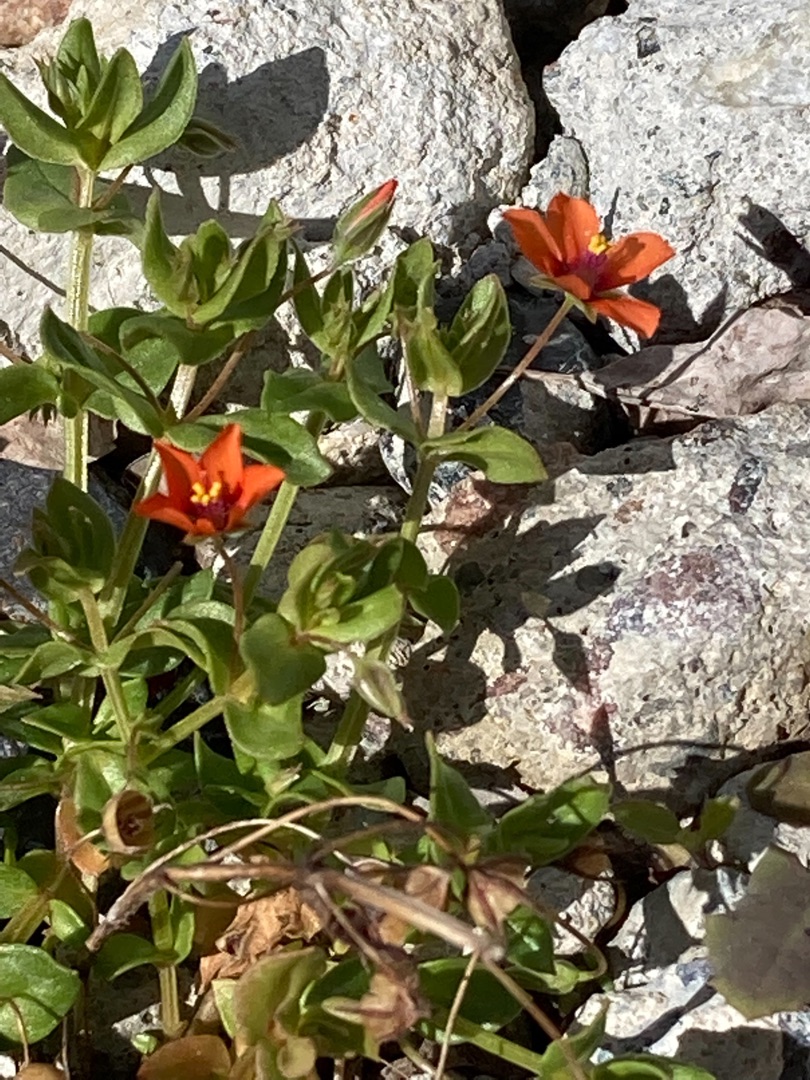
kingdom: Plantae
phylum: Tracheophyta
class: Magnoliopsida
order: Ericales
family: Primulaceae
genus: Lysimachia
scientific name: Lysimachia arvensis
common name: Rød arve
